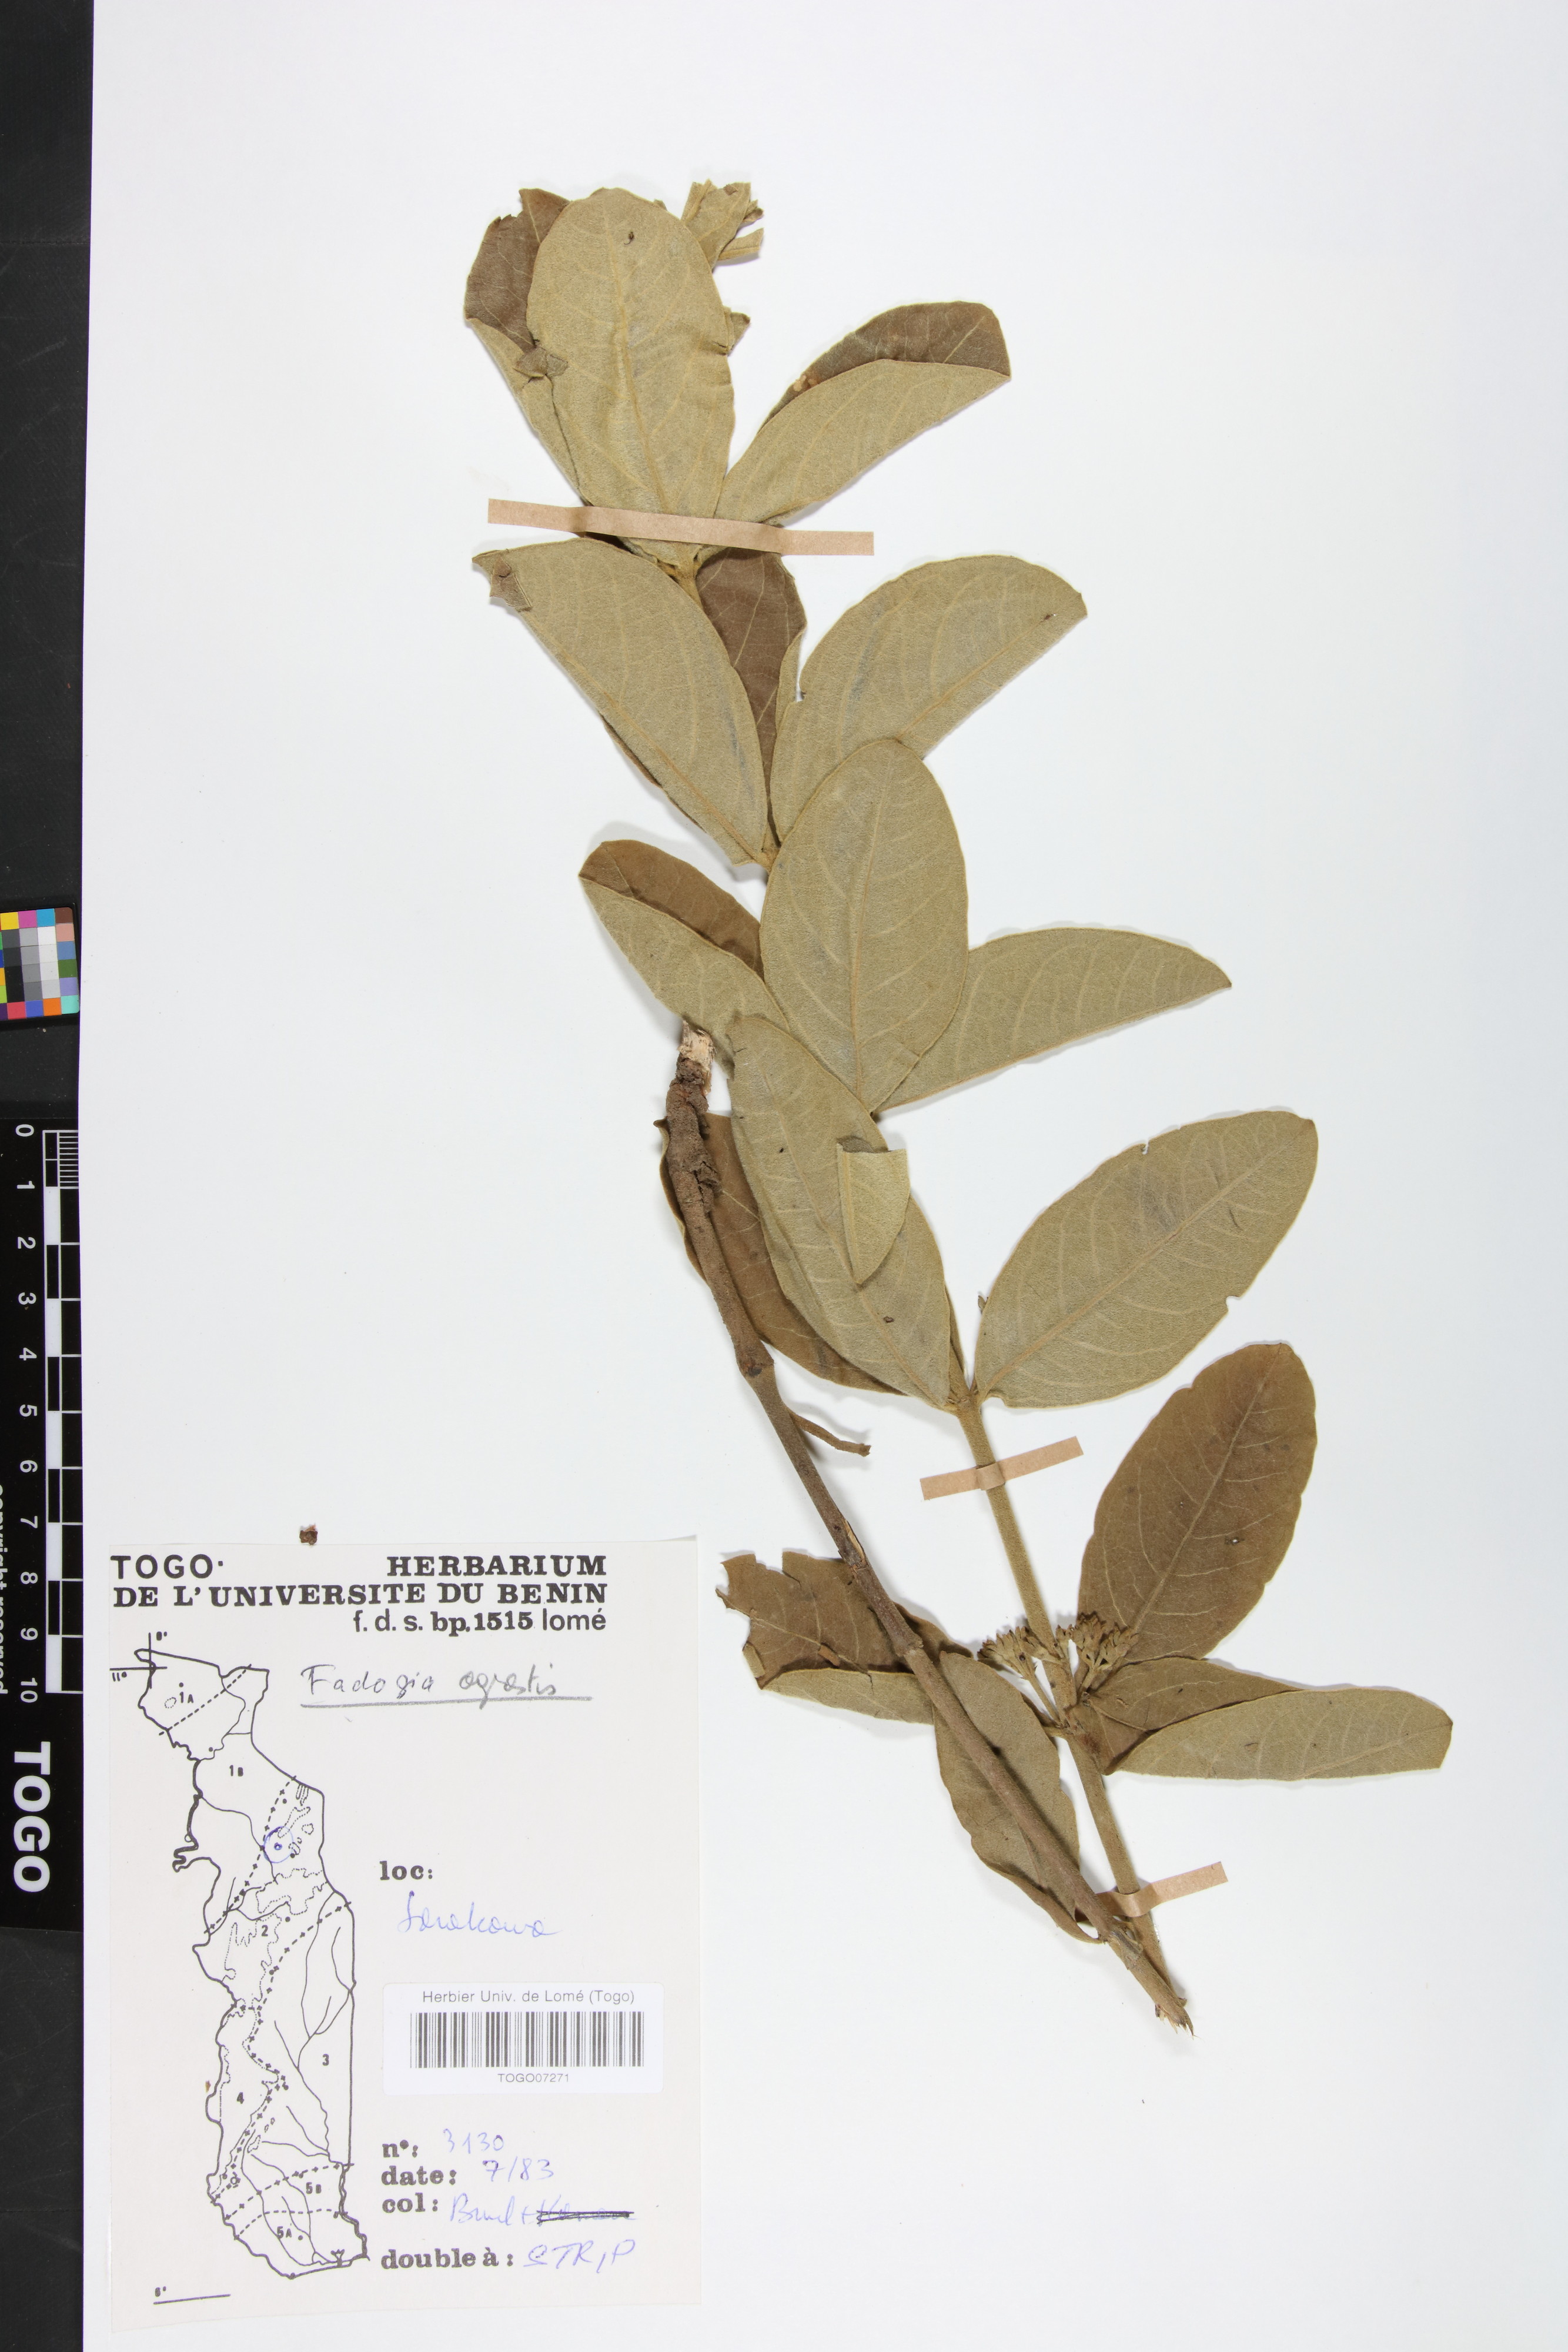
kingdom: Plantae
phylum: Tracheophyta
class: Magnoliopsida
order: Gentianales
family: Rubiaceae
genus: Vangueria
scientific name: Vangueria agrestis
